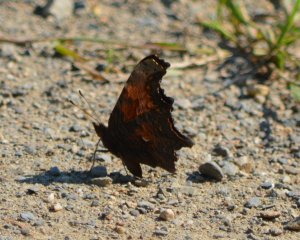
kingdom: Animalia
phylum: Arthropoda
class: Insecta
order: Lepidoptera
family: Nymphalidae
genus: Polygonia
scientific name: Polygonia progne
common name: Gray Comma
